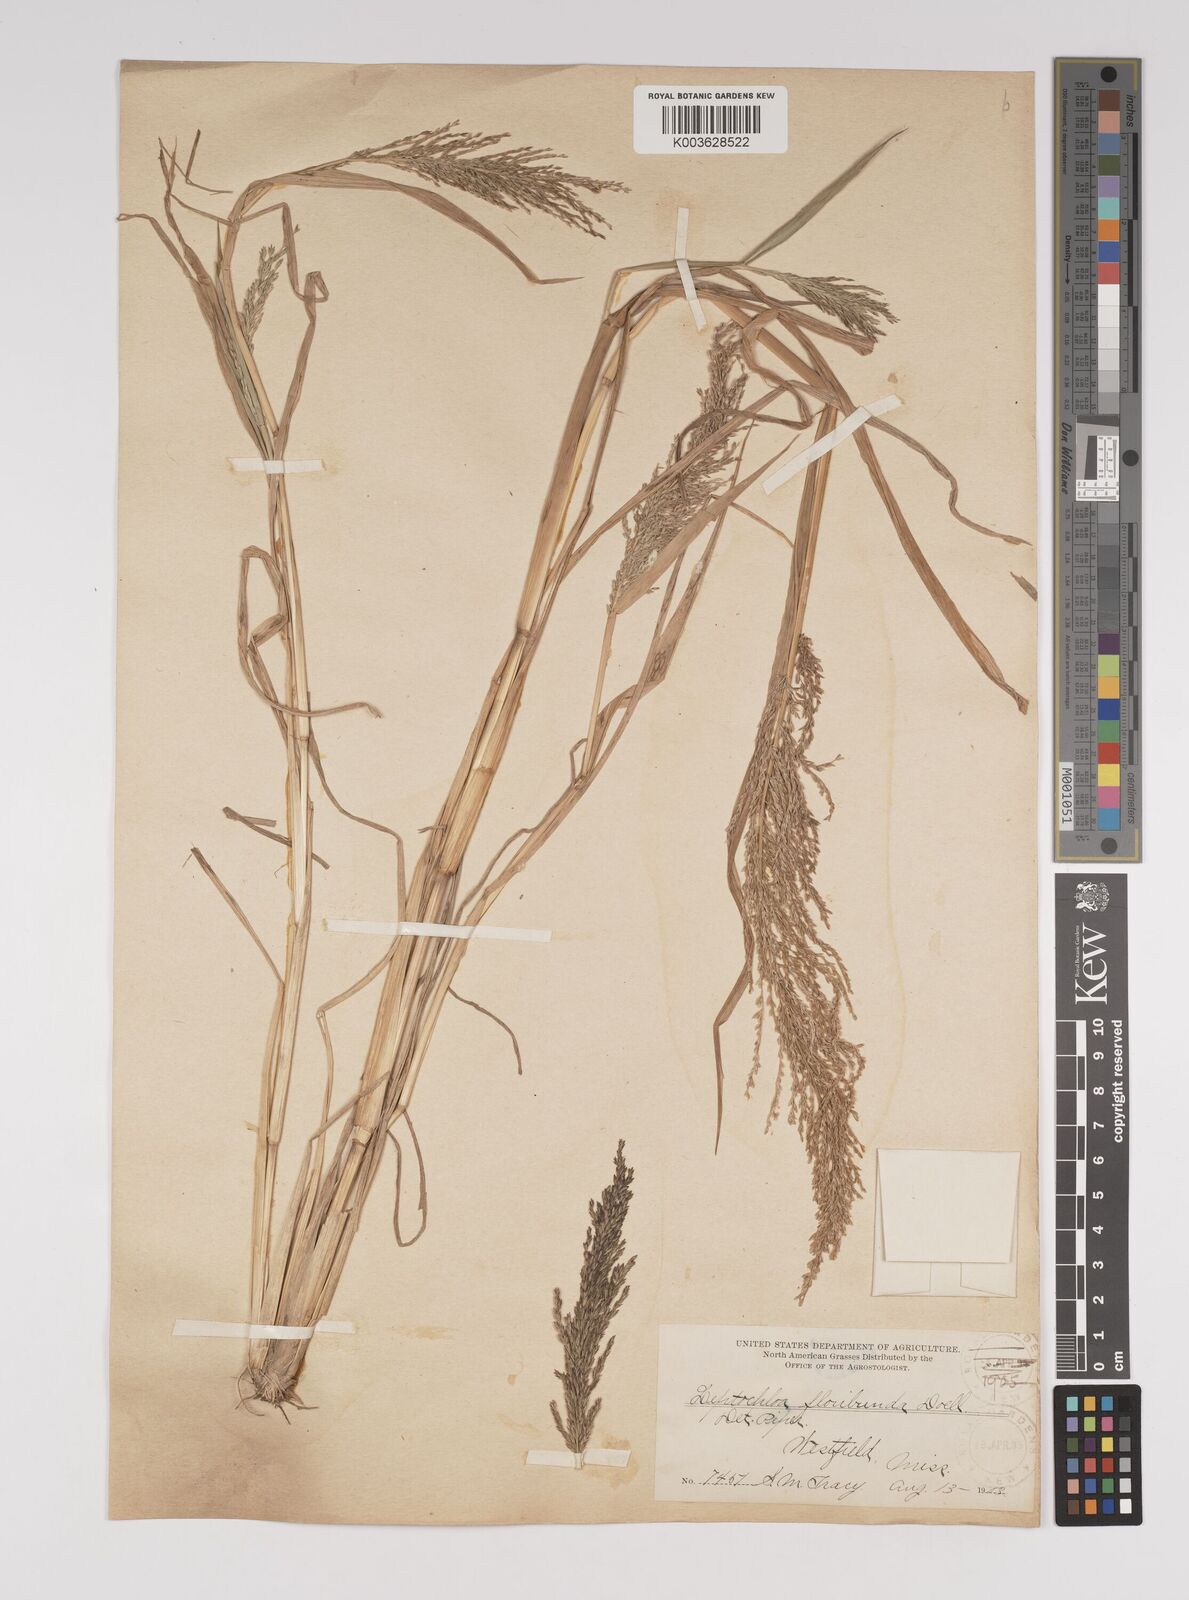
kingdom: Plantae
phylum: Tracheophyta
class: Liliopsida
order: Poales
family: Poaceae
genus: Leptochloa
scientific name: Leptochloa panicoides
